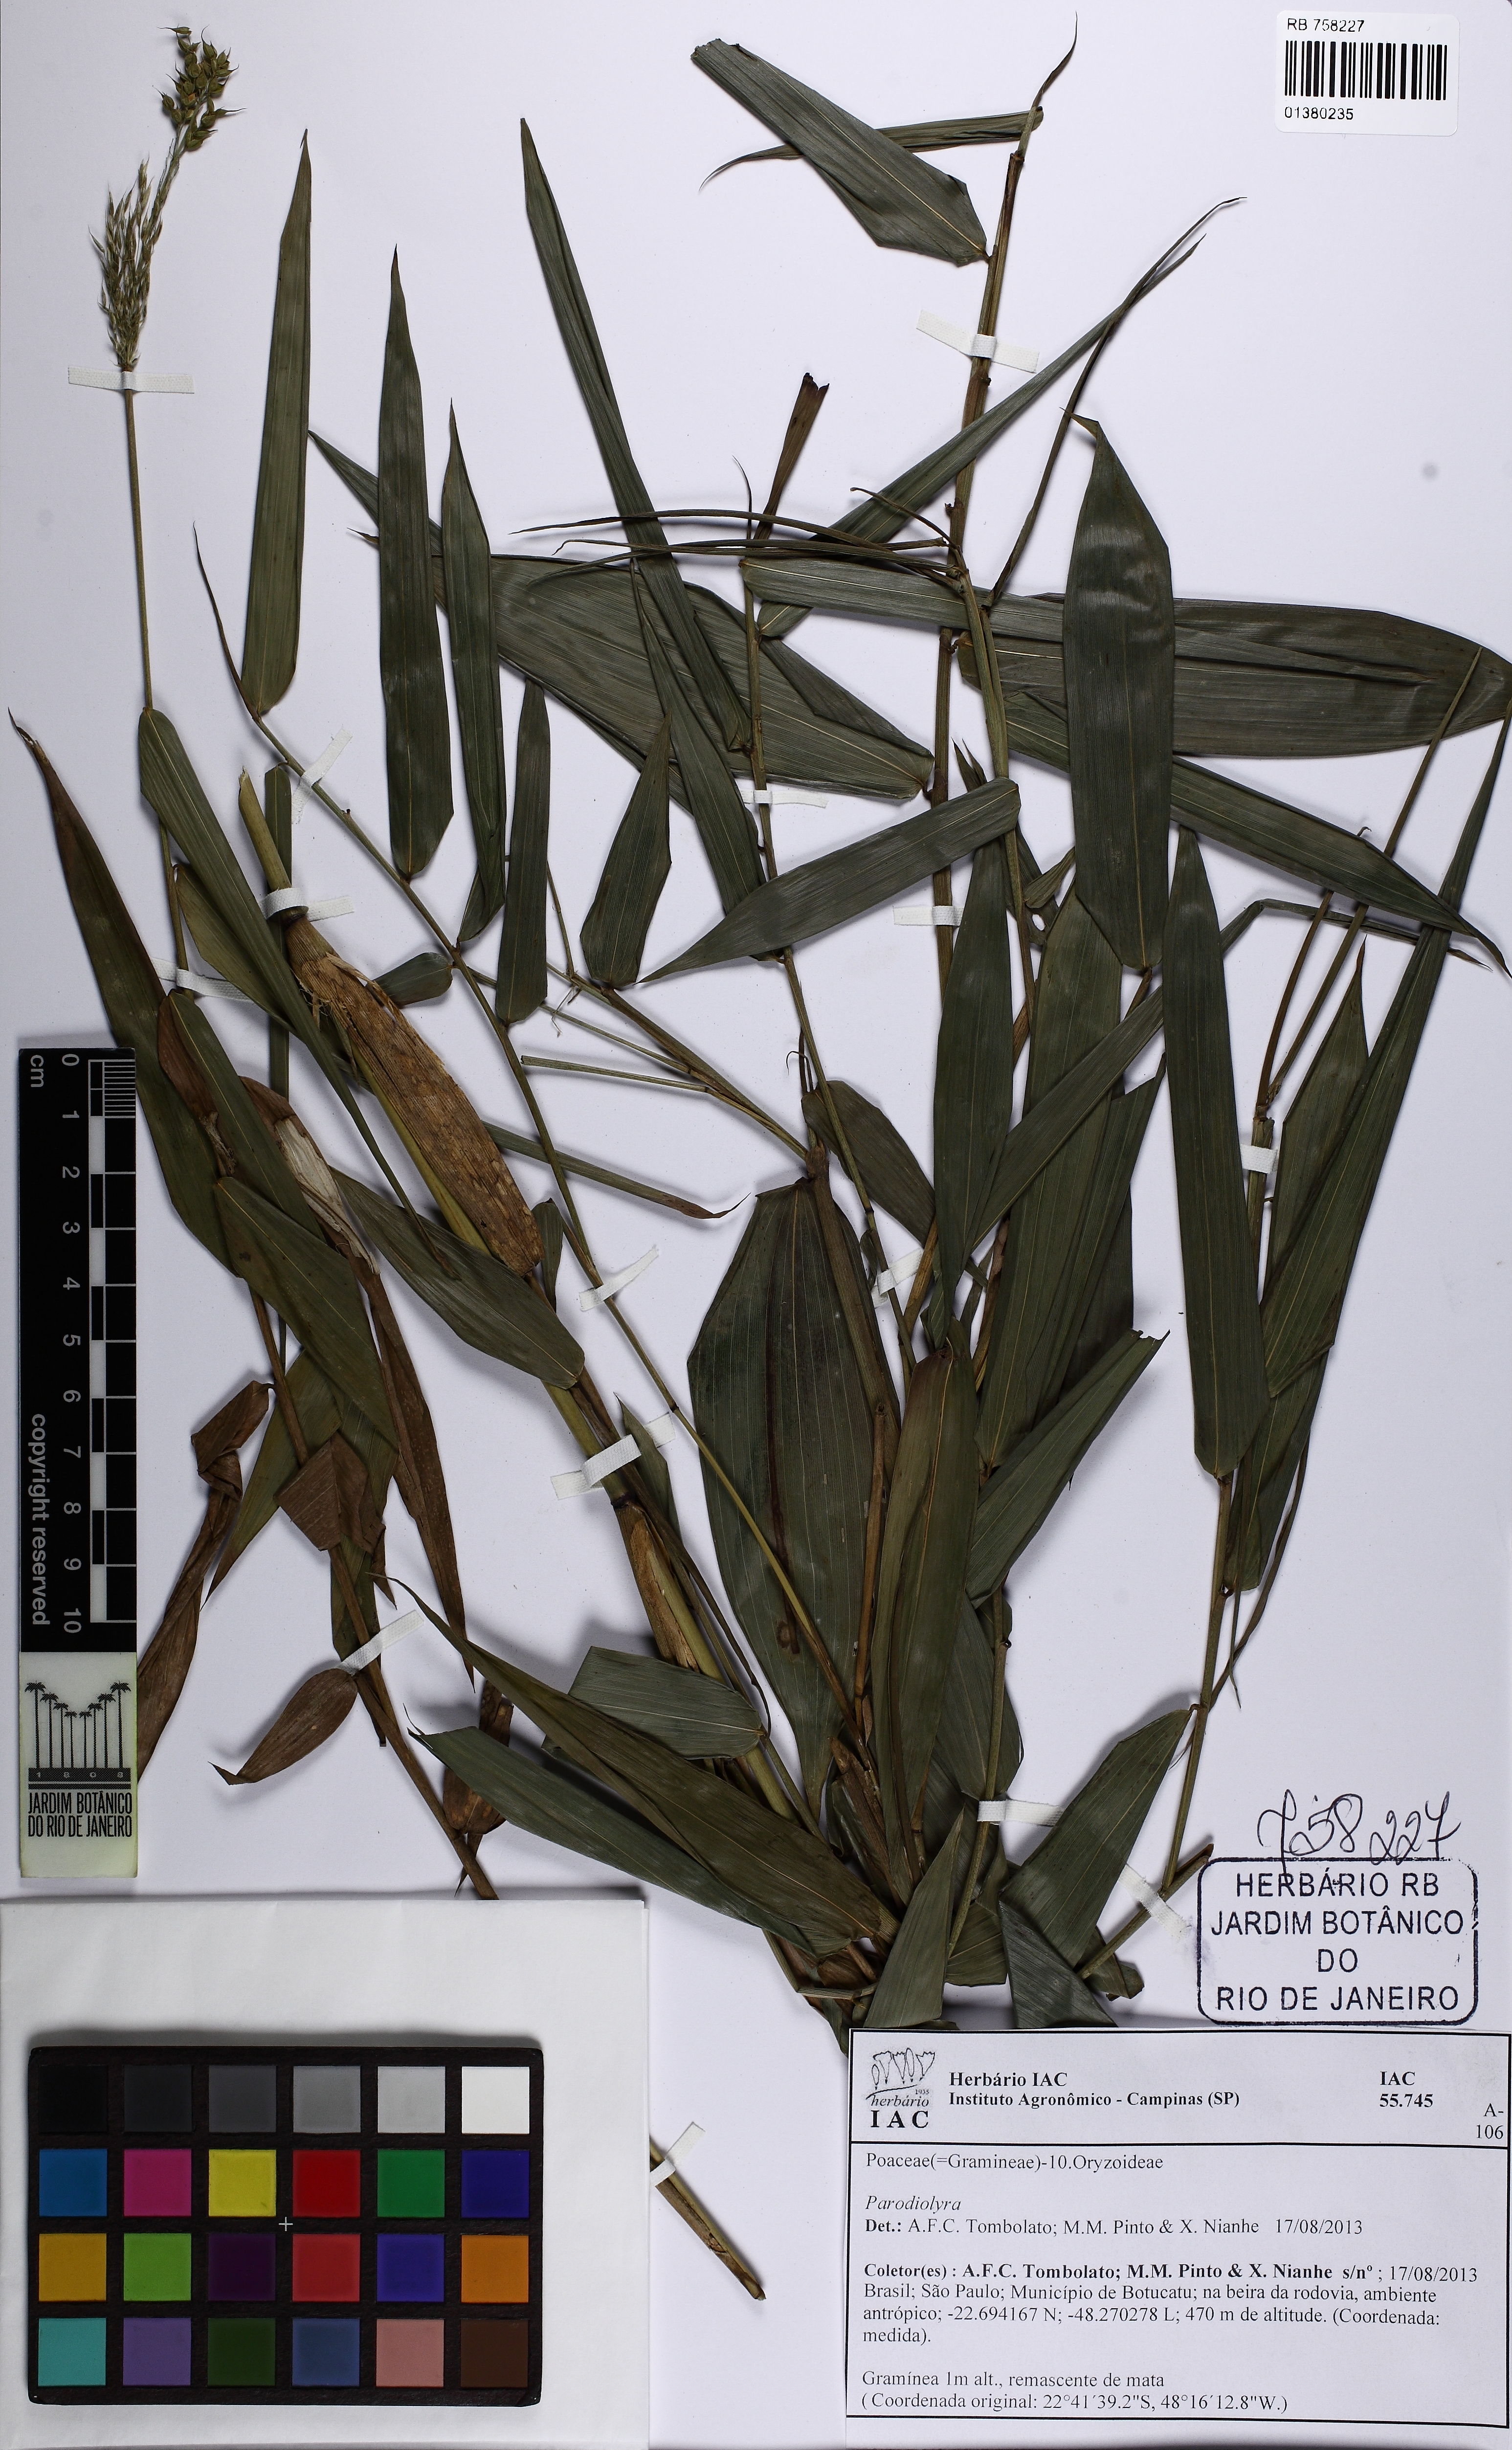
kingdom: Plantae
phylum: Tracheophyta
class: Liliopsida
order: Poales
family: Poaceae
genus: Parodiolyra
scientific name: Parodiolyra
